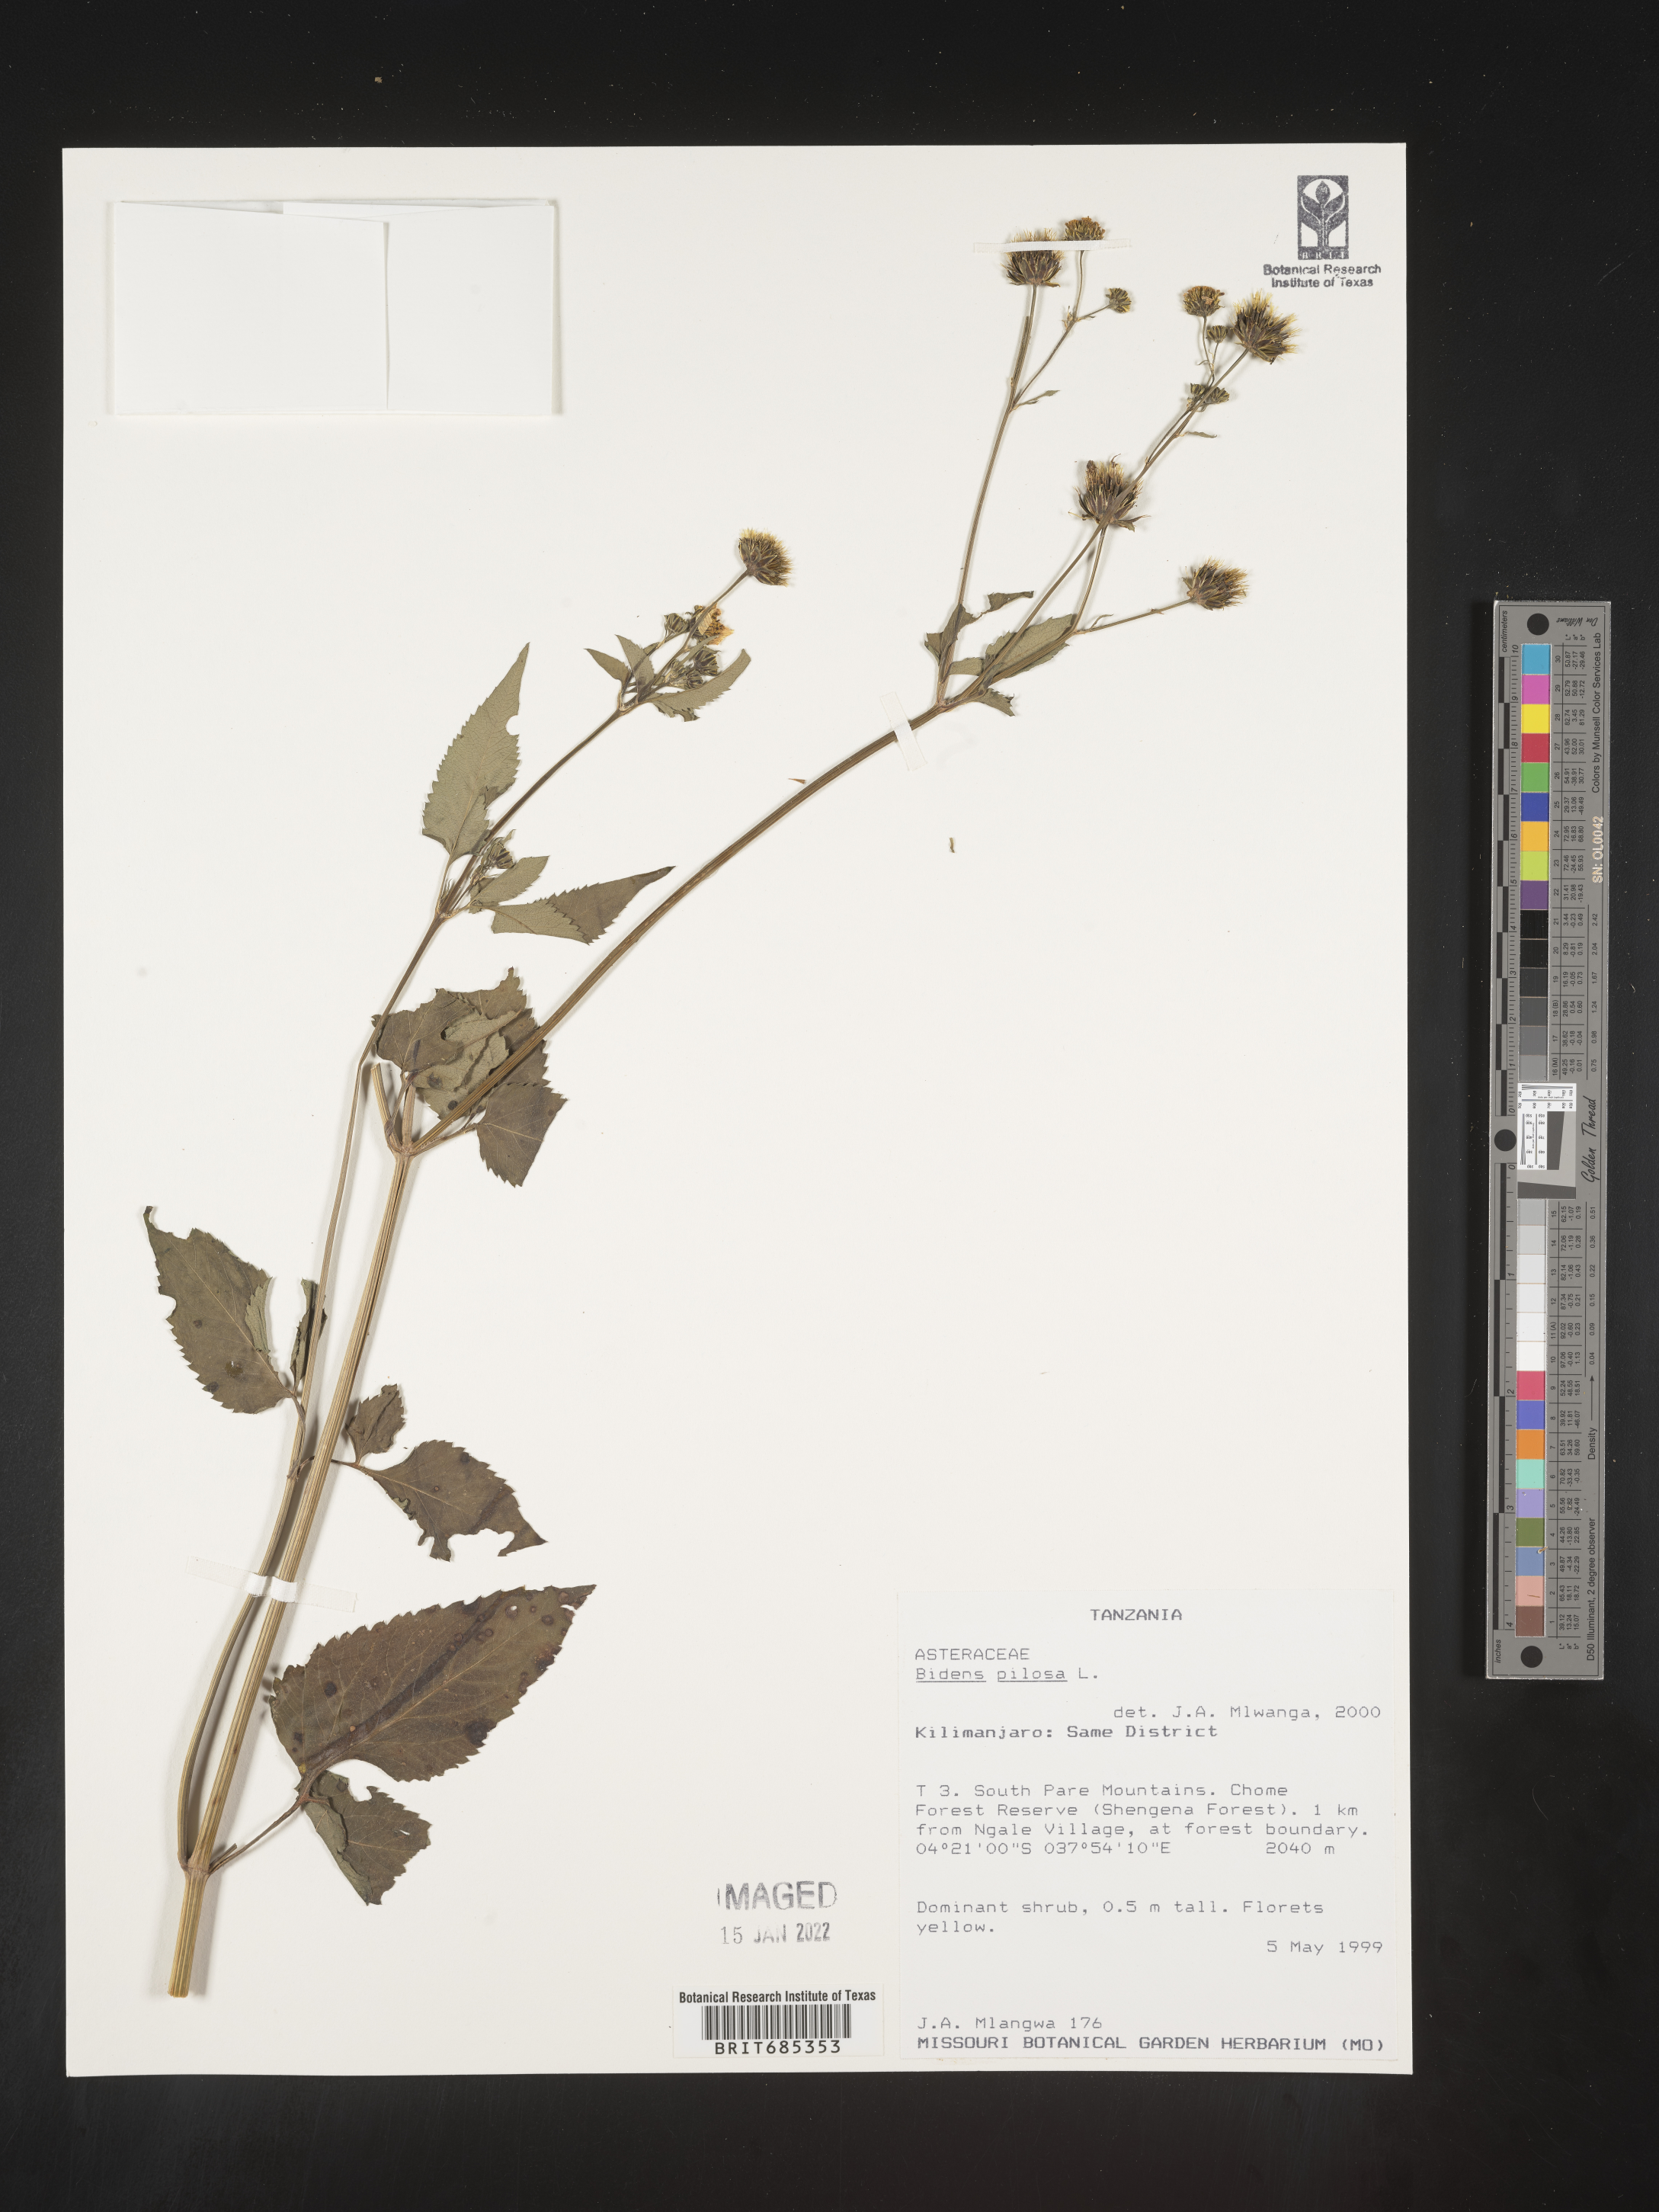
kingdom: Plantae
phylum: Tracheophyta
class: Magnoliopsida
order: Asterales
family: Asteraceae
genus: Bidens
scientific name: Bidens
